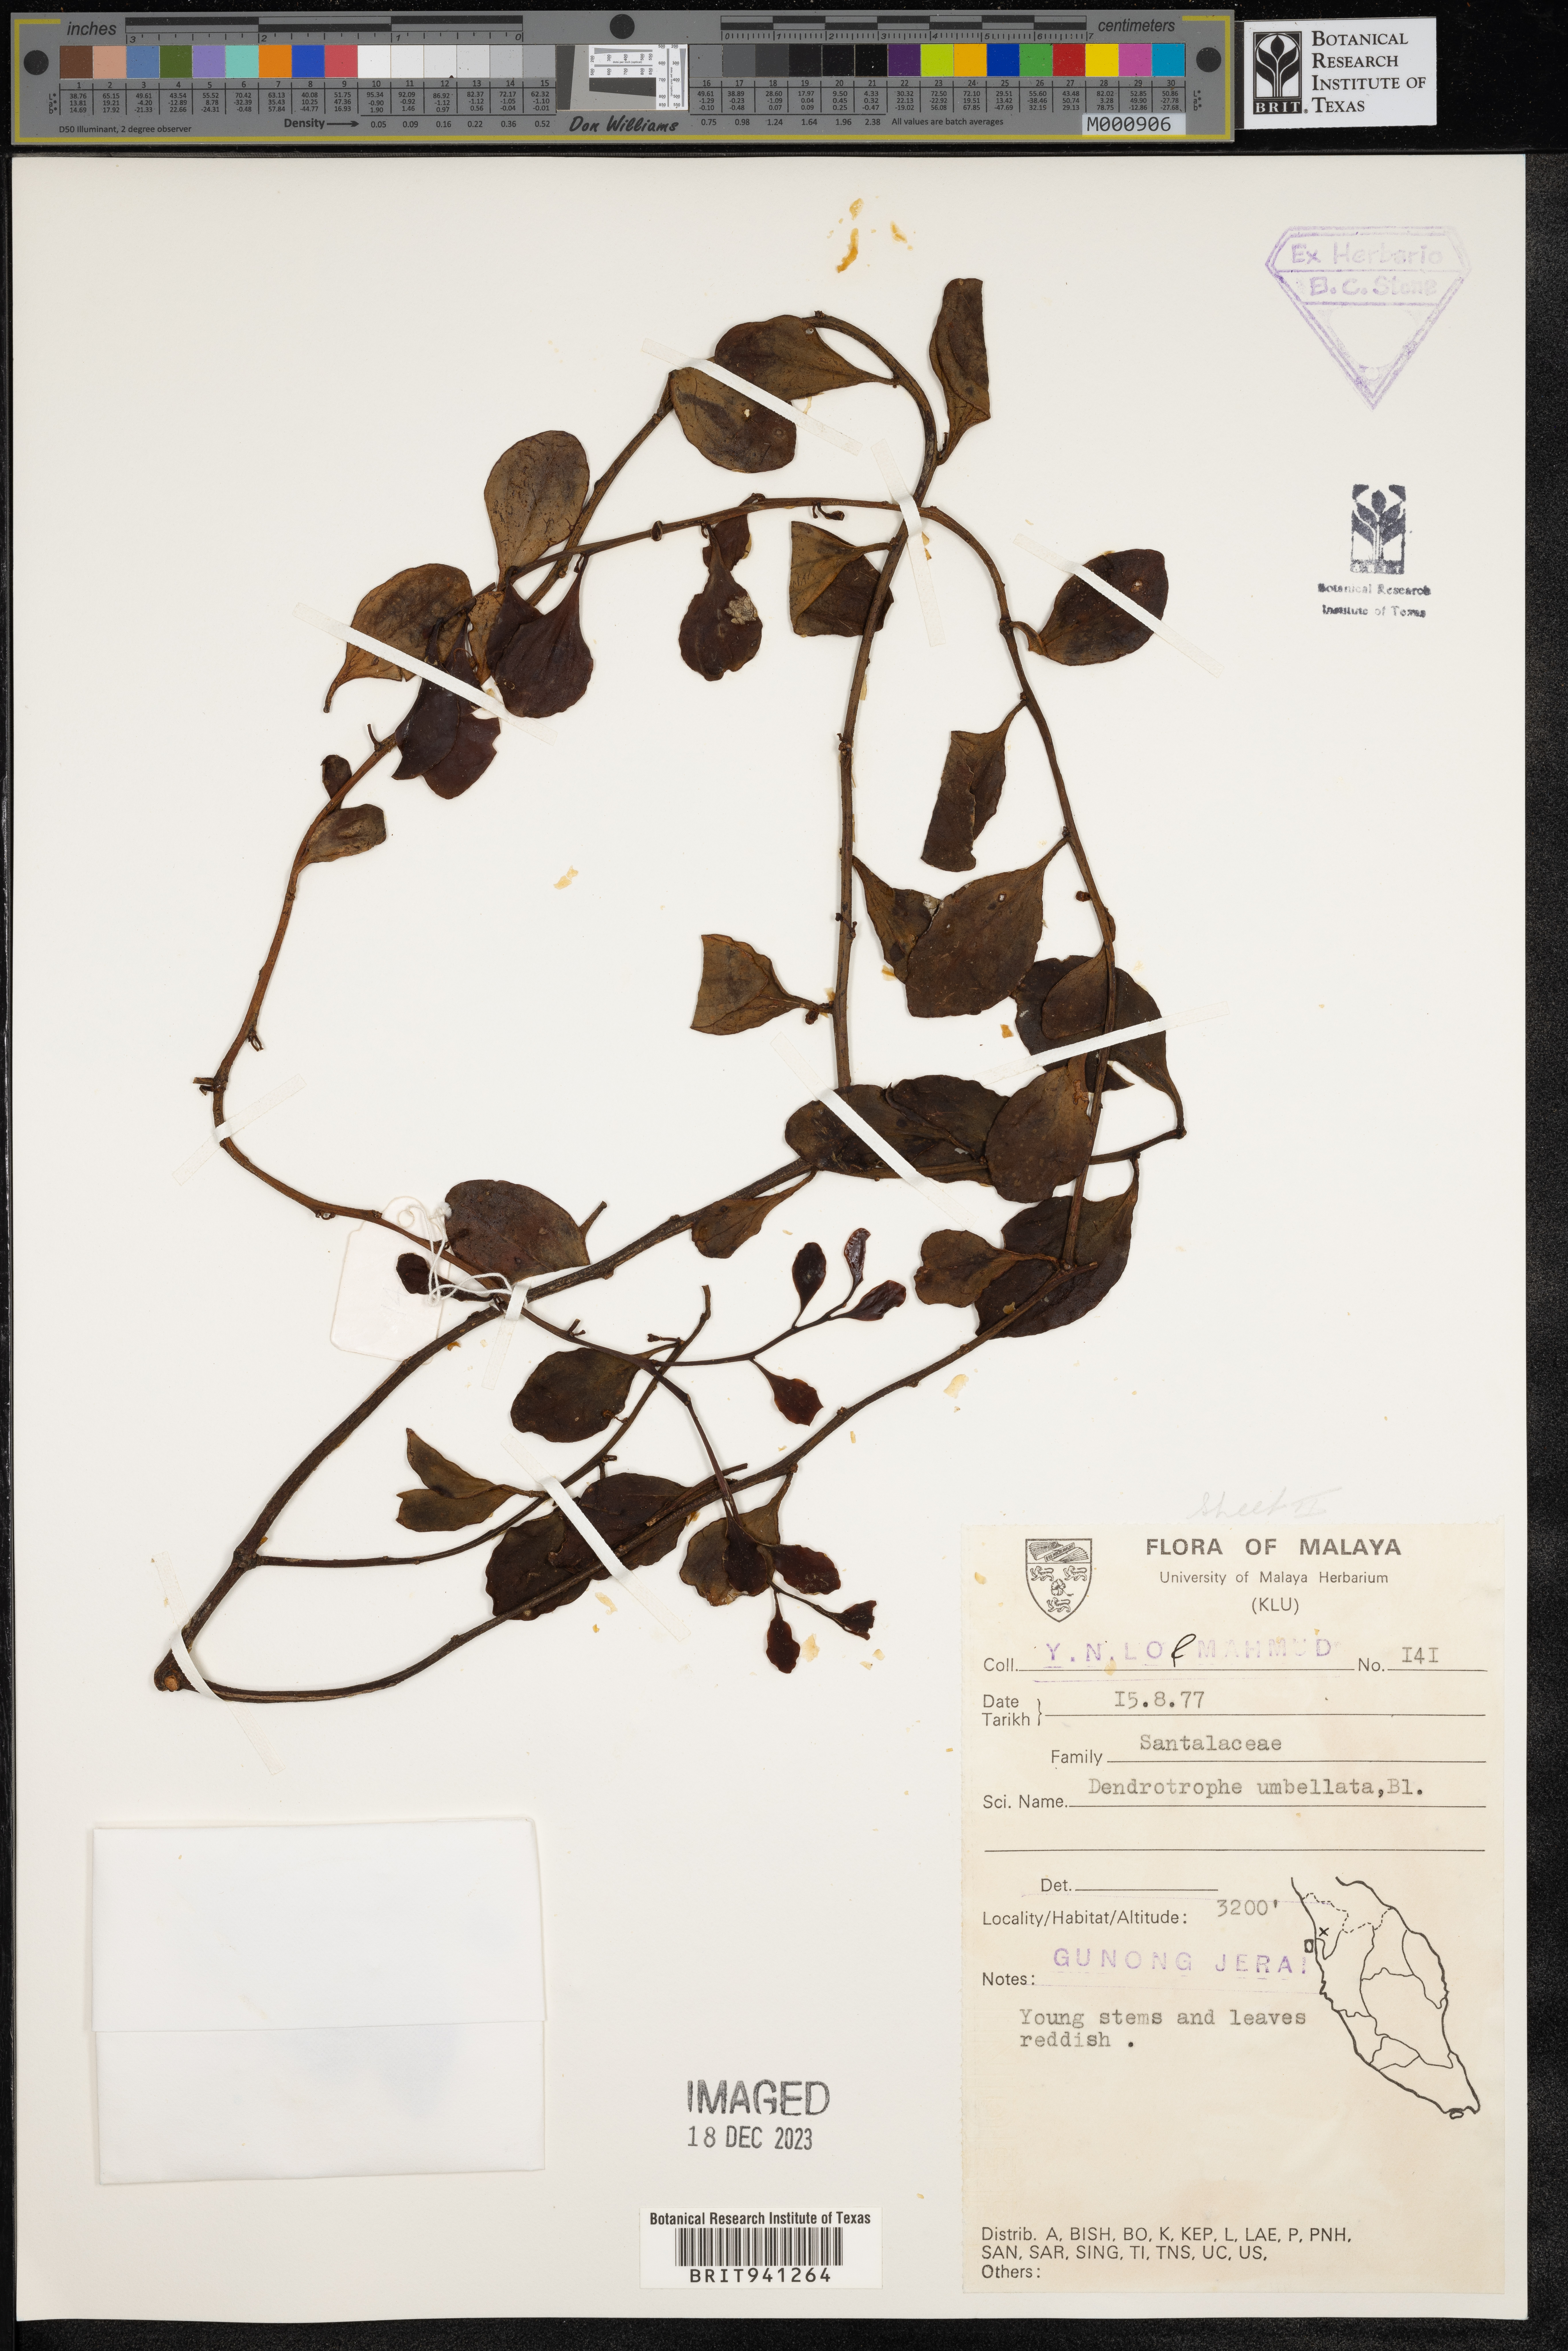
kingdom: Plantae
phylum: Tracheophyta
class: Magnoliopsida
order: Santalales
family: Amphorogynaceae
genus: Dendrotrophe
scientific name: Dendrotrophe
